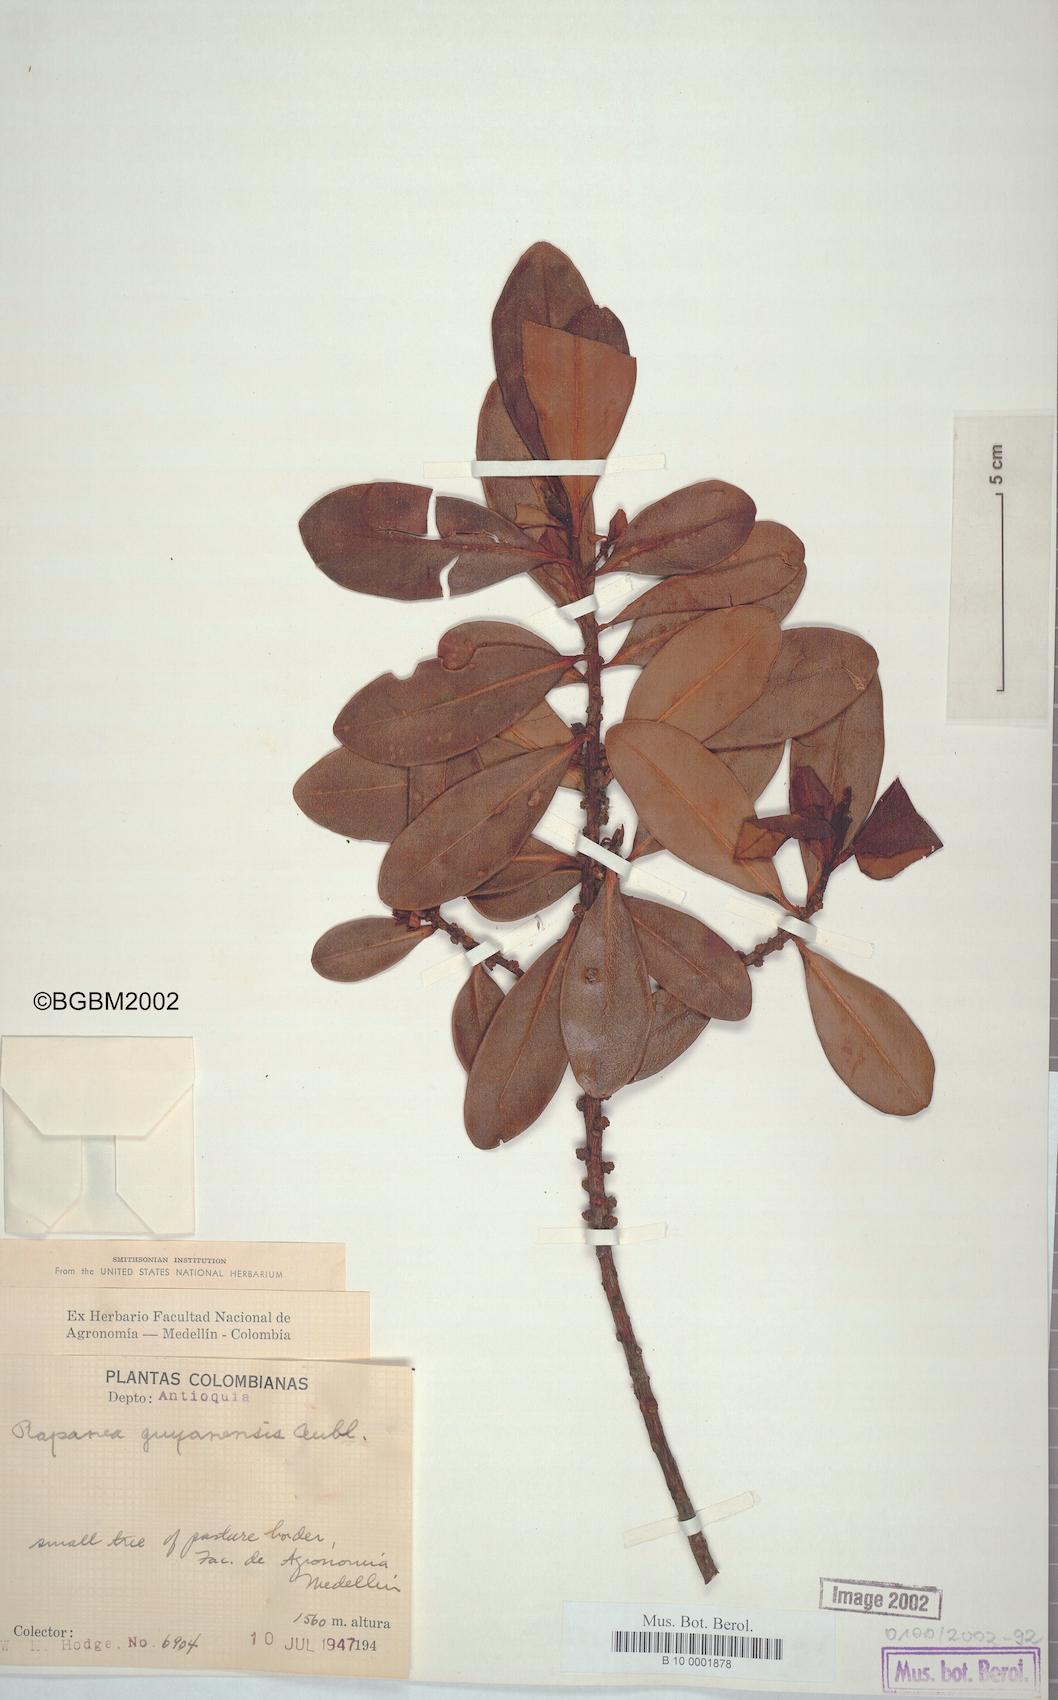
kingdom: Plantae
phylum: Tracheophyta
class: Magnoliopsida
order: Ericales
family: Primulaceae
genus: Myrsine
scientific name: Myrsine guianensis
